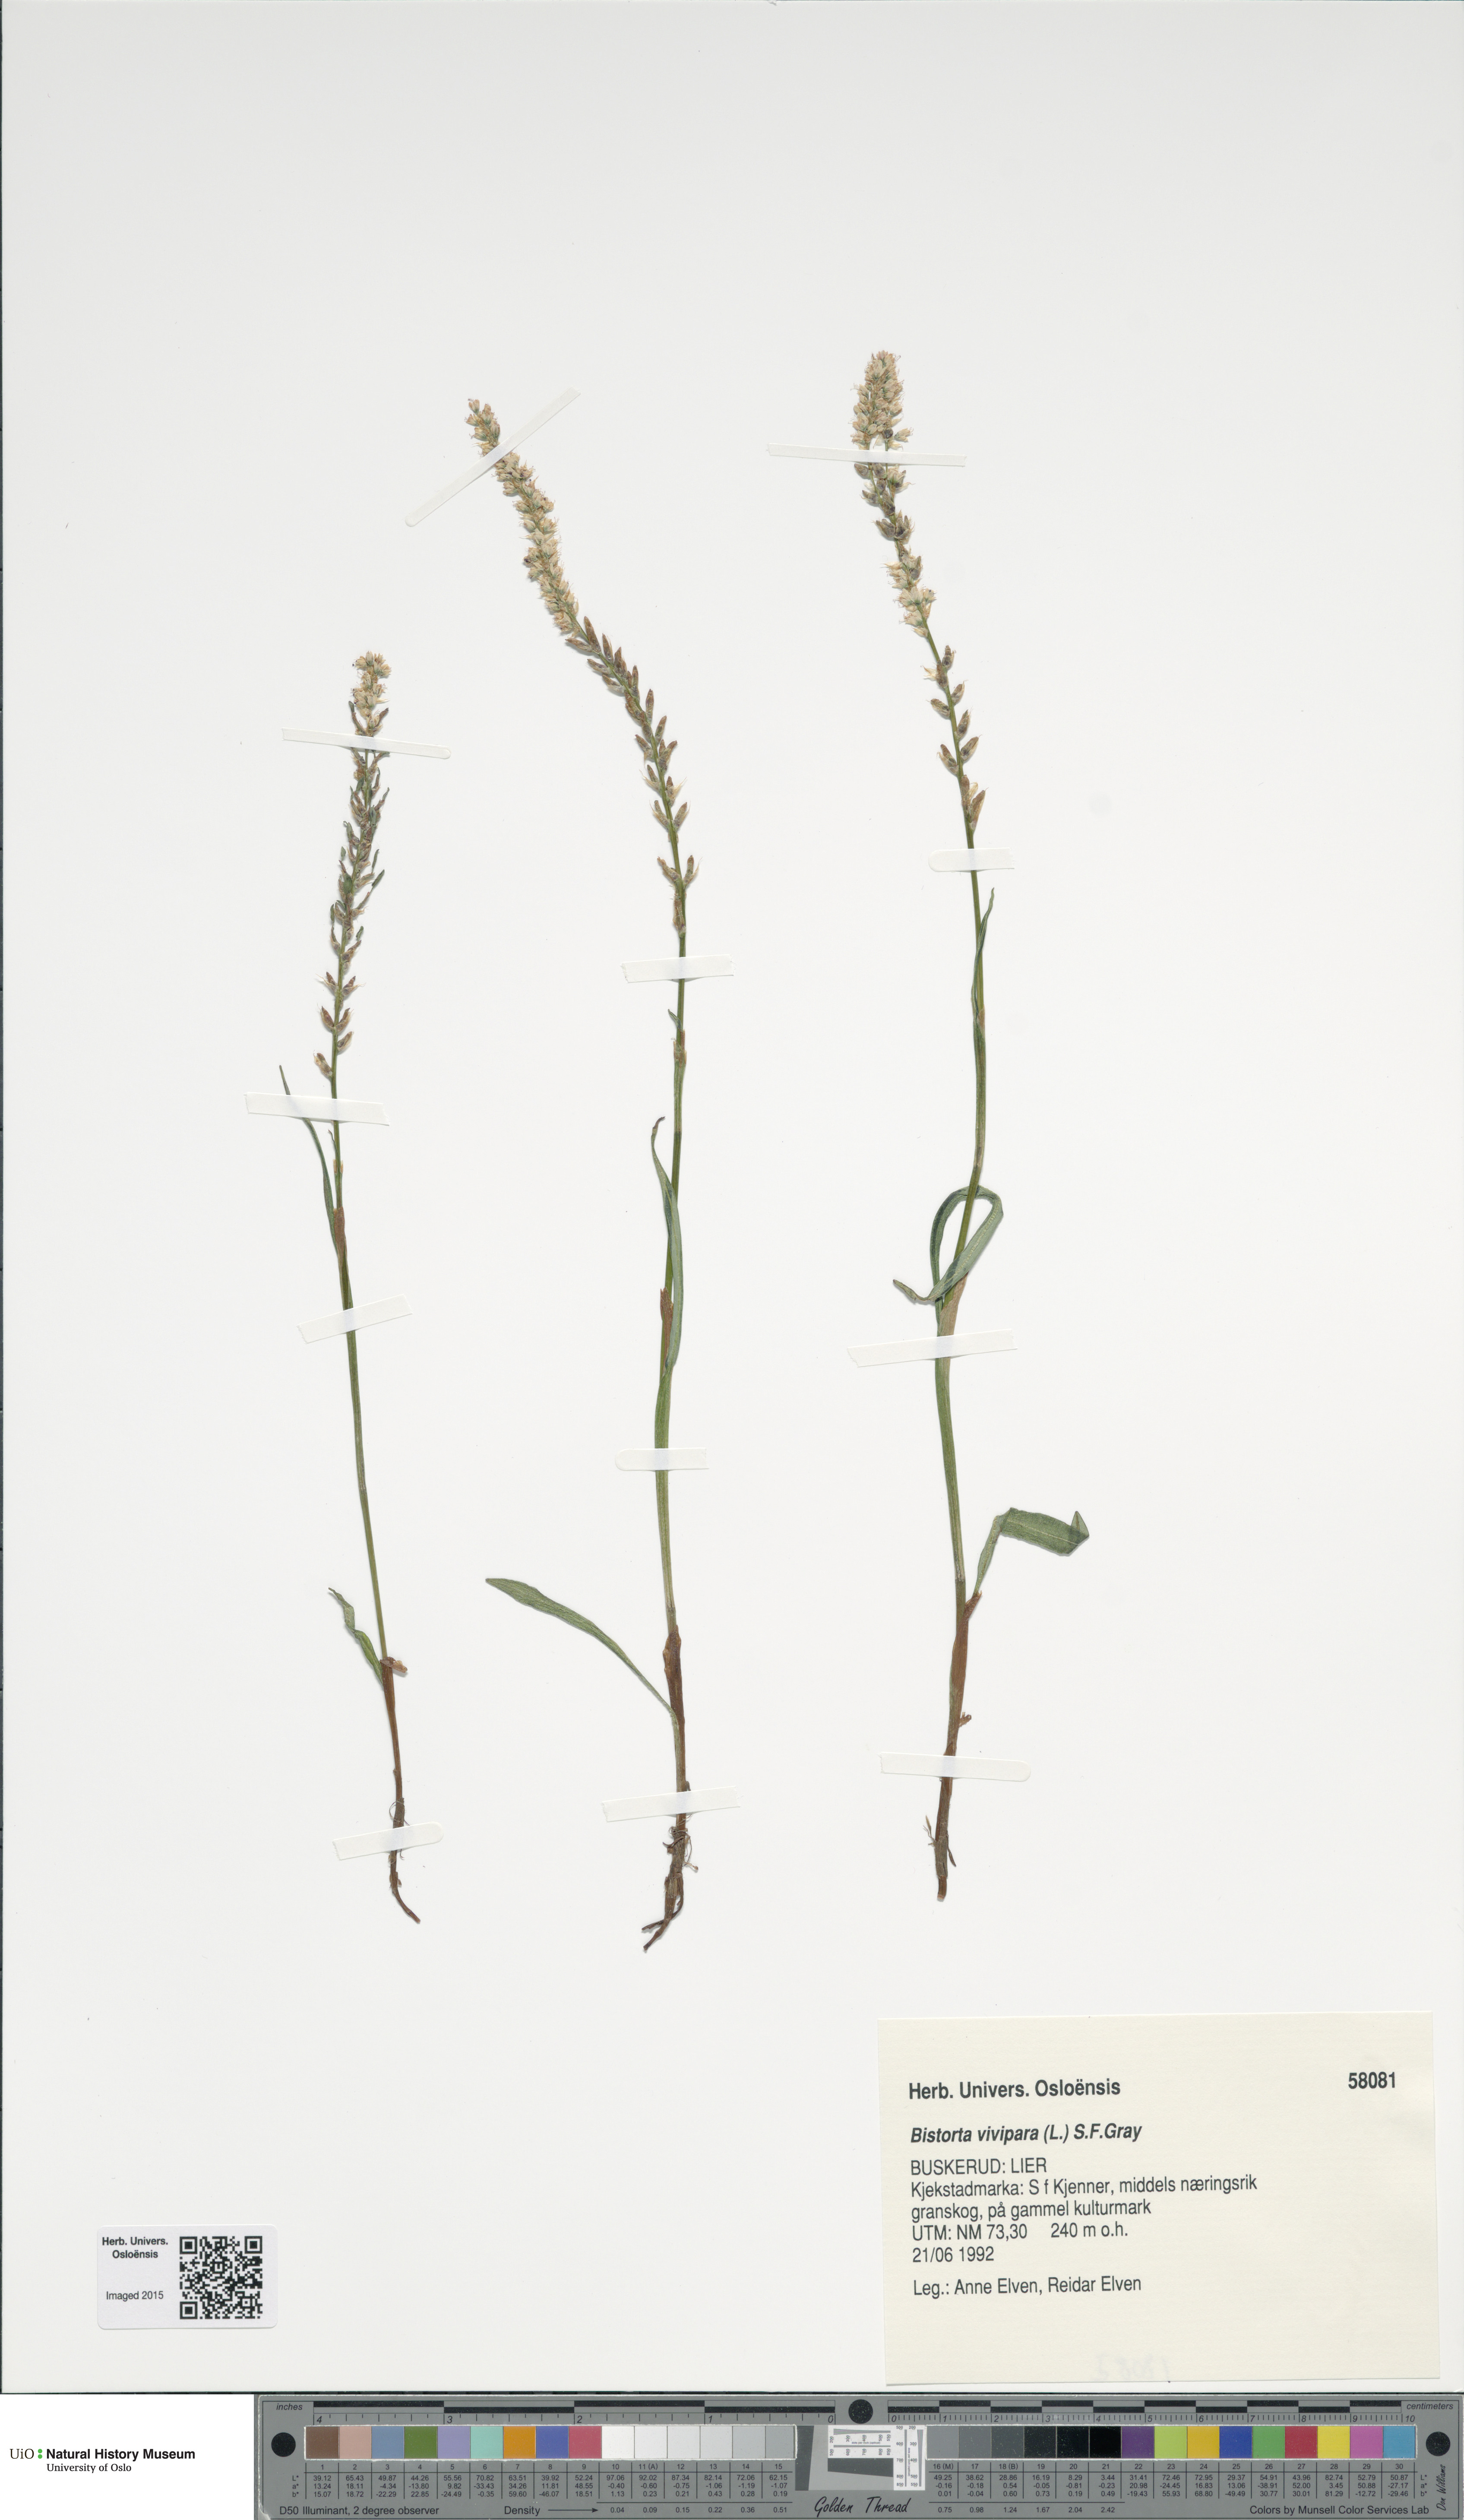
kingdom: Plantae
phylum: Tracheophyta
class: Magnoliopsida
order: Caryophyllales
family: Polygonaceae
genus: Bistorta
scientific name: Bistorta vivipara
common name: Alpine bistort
